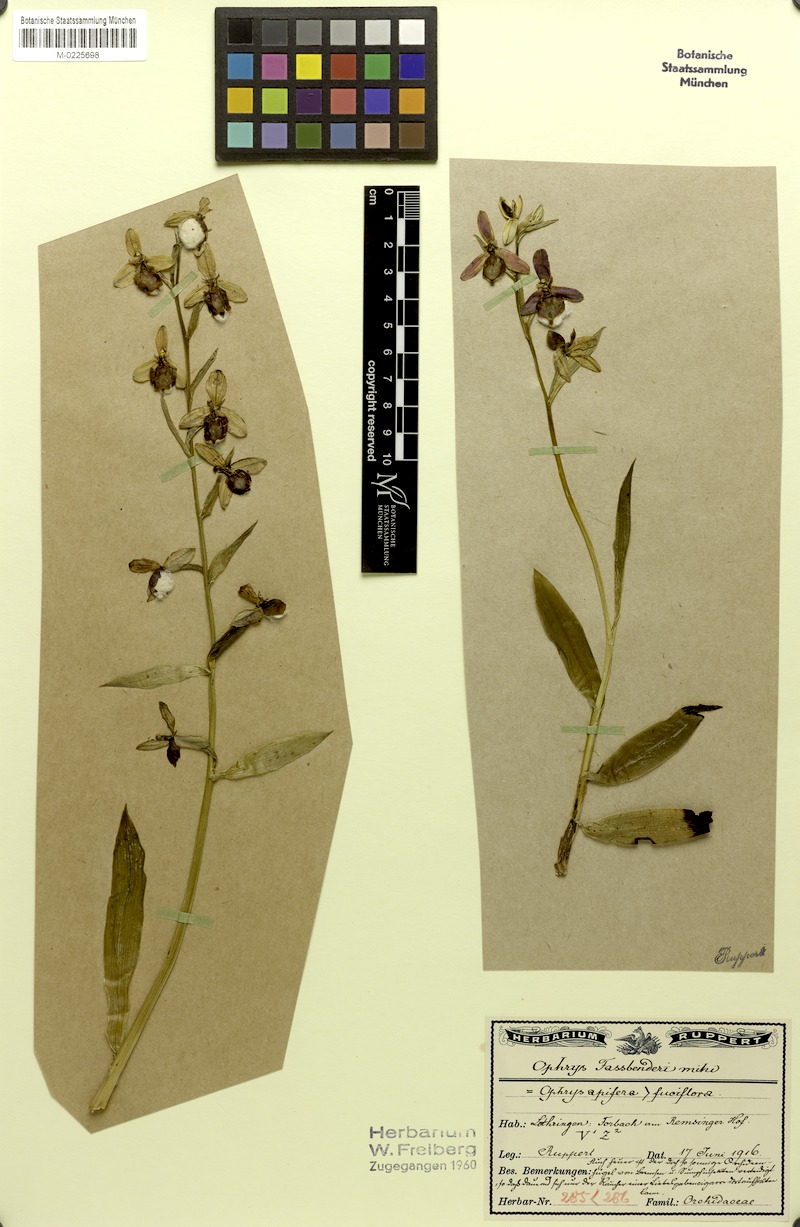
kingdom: Plantae
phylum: Tracheophyta
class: Liliopsida
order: Asparagales
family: Orchidaceae
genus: Ophrys
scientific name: Ophrys albertiana
